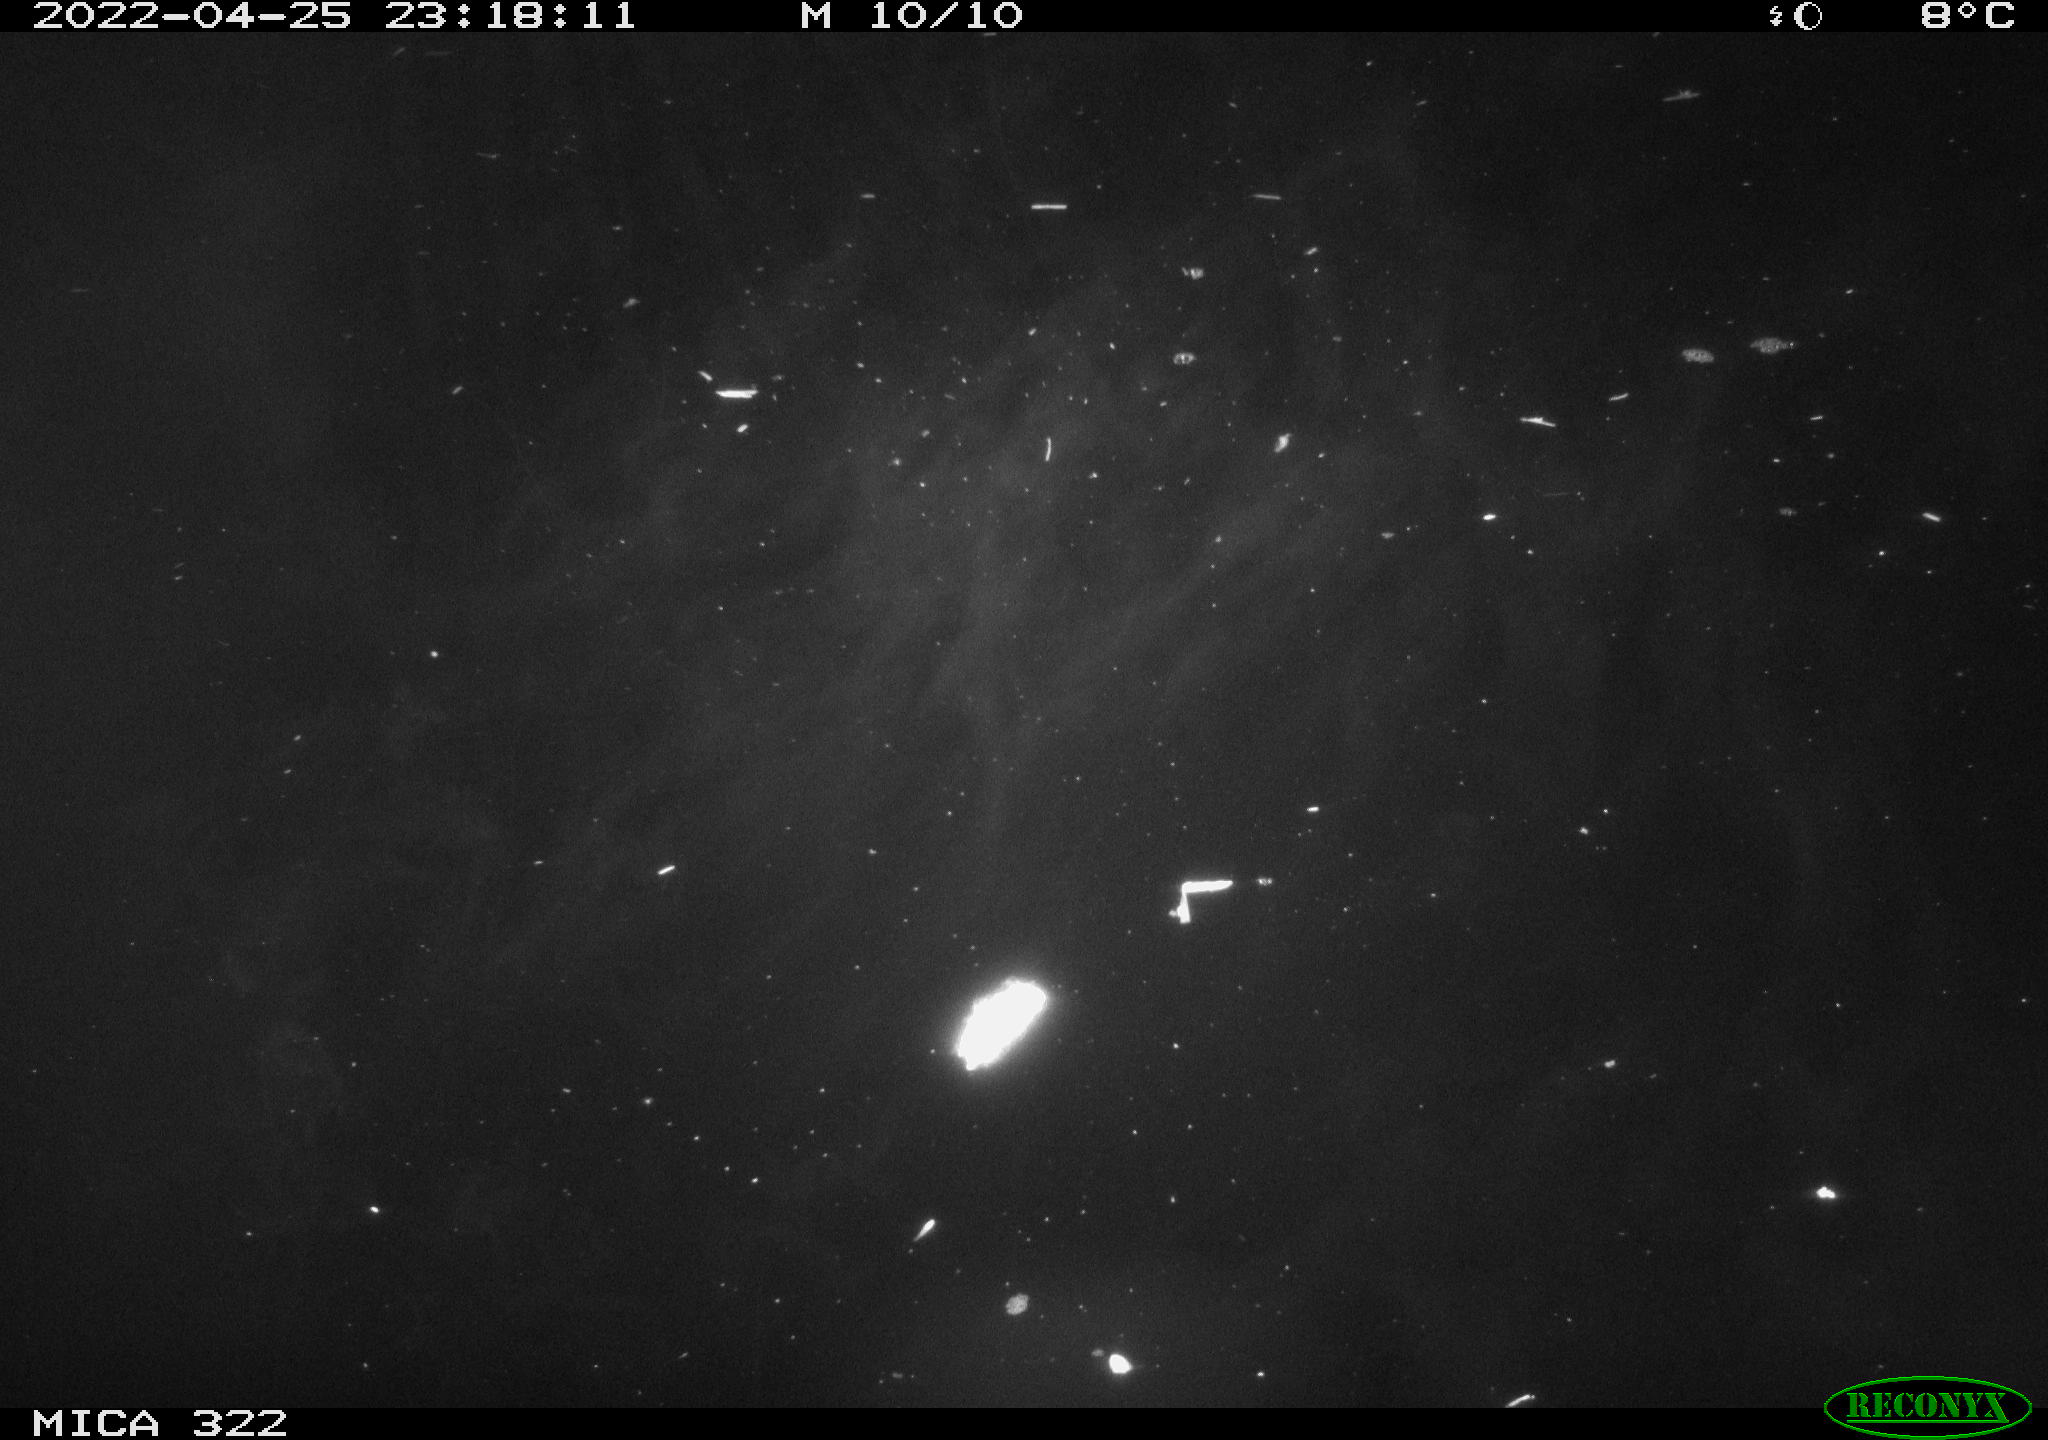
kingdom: Animalia
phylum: Chordata
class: Aves
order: Anseriformes
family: Anatidae
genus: Anas
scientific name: Anas platyrhynchos
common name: Mallard
